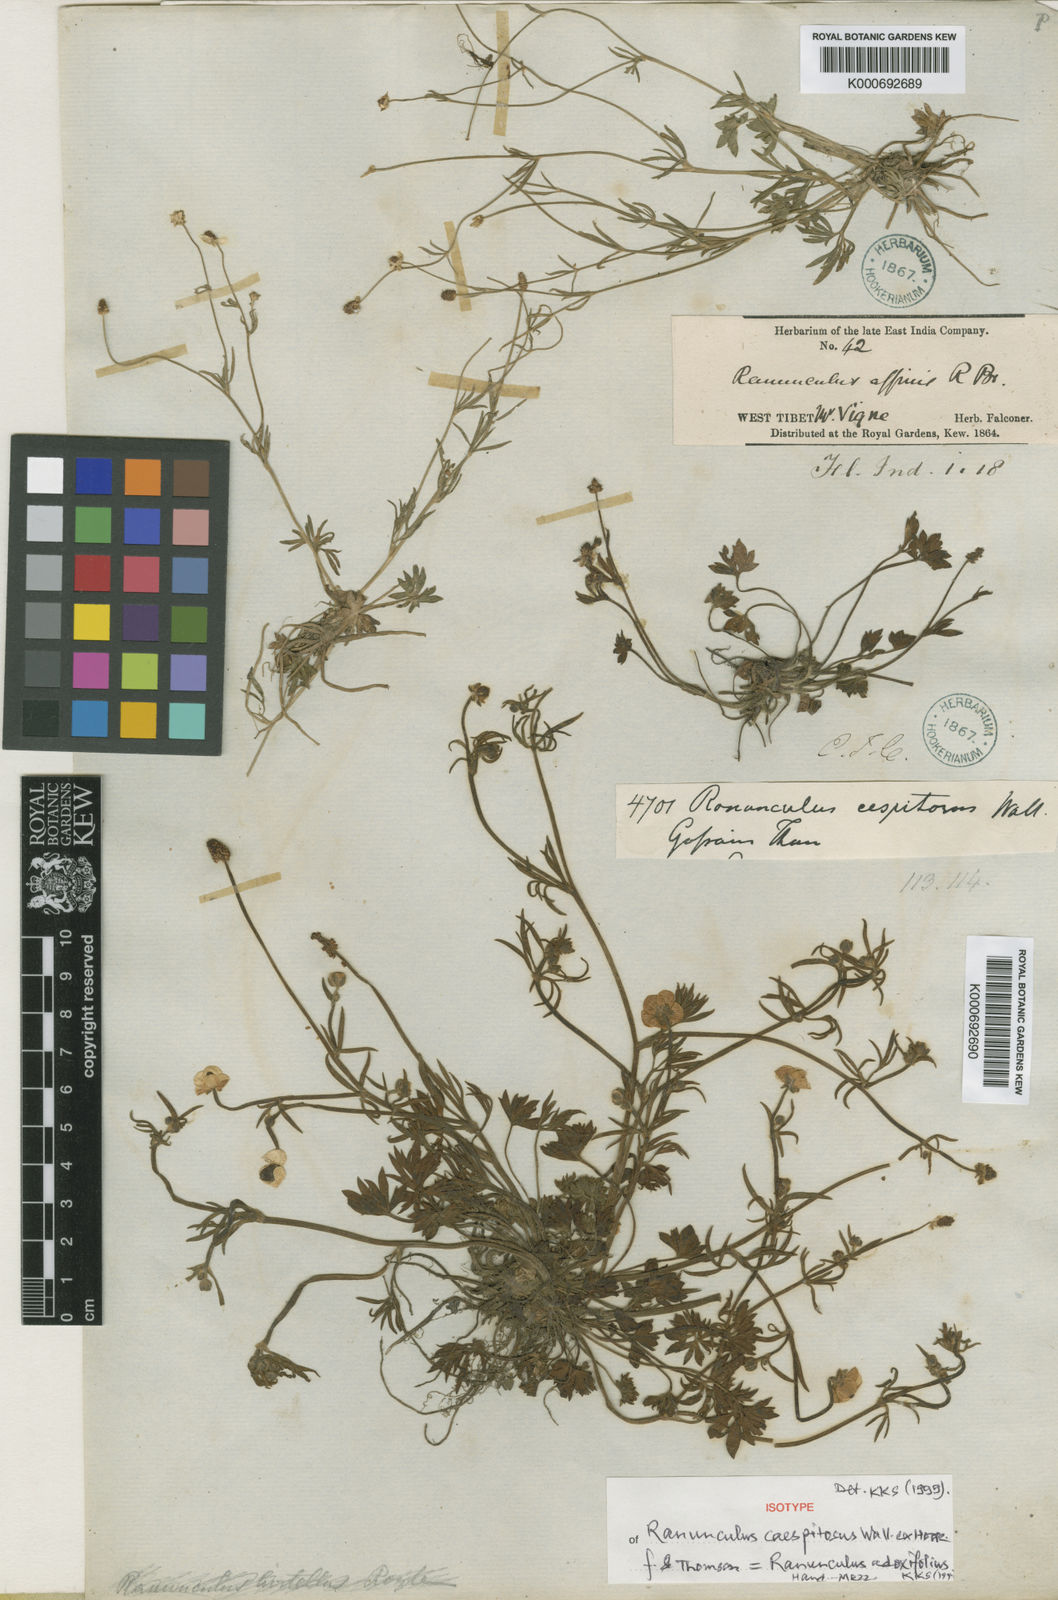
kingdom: Plantae
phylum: Tracheophyta
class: Magnoliopsida
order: Ranunculales
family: Ranunculaceae
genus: Ranunculus
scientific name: Ranunculus arcticus
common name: Bird's-foot buttercup
